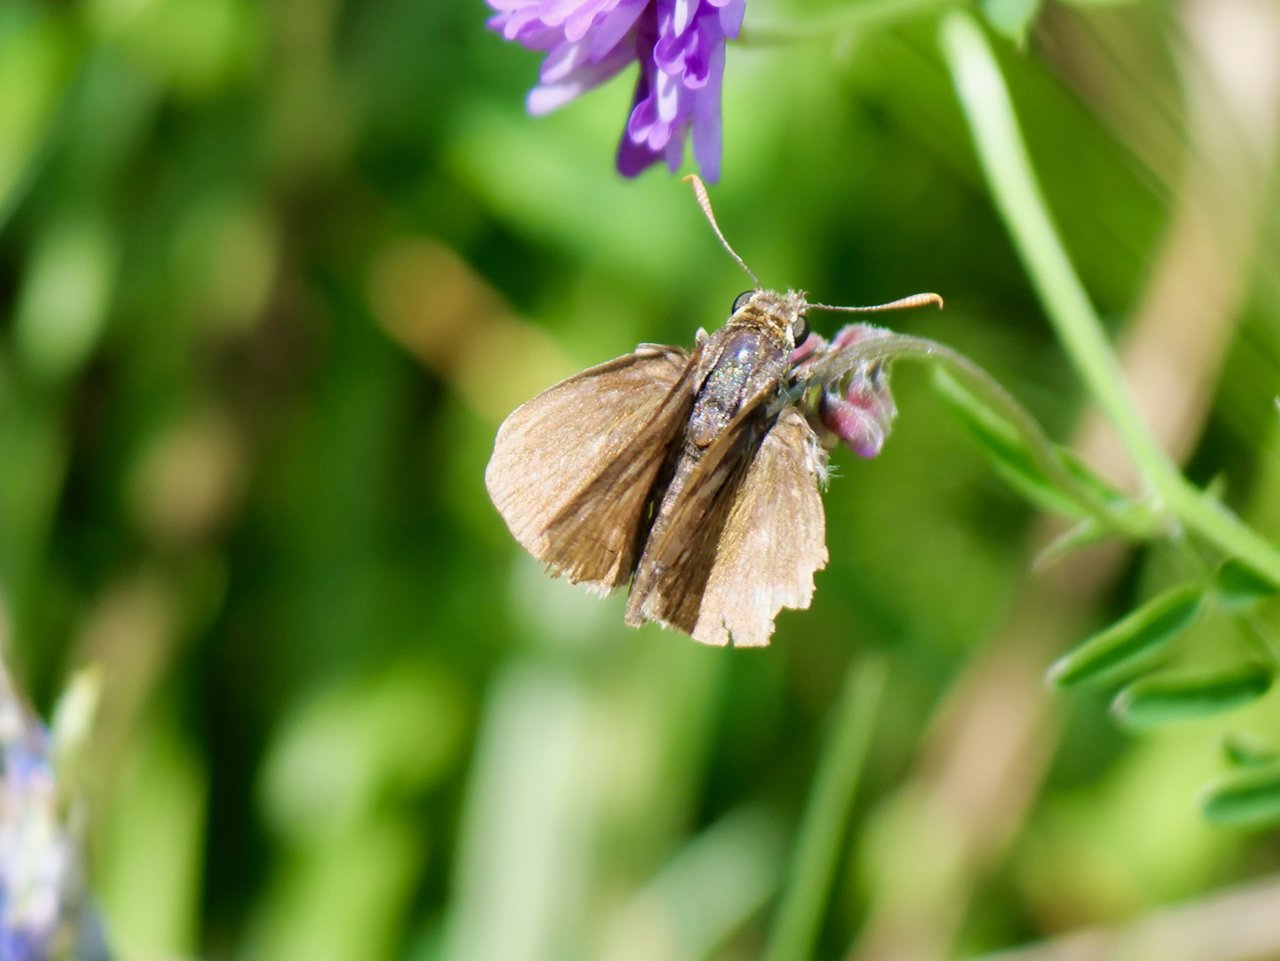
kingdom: Animalia
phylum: Arthropoda
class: Insecta
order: Lepidoptera
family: Hesperiidae
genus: Euphyes
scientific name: Euphyes vestris
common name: Dun Skipper
